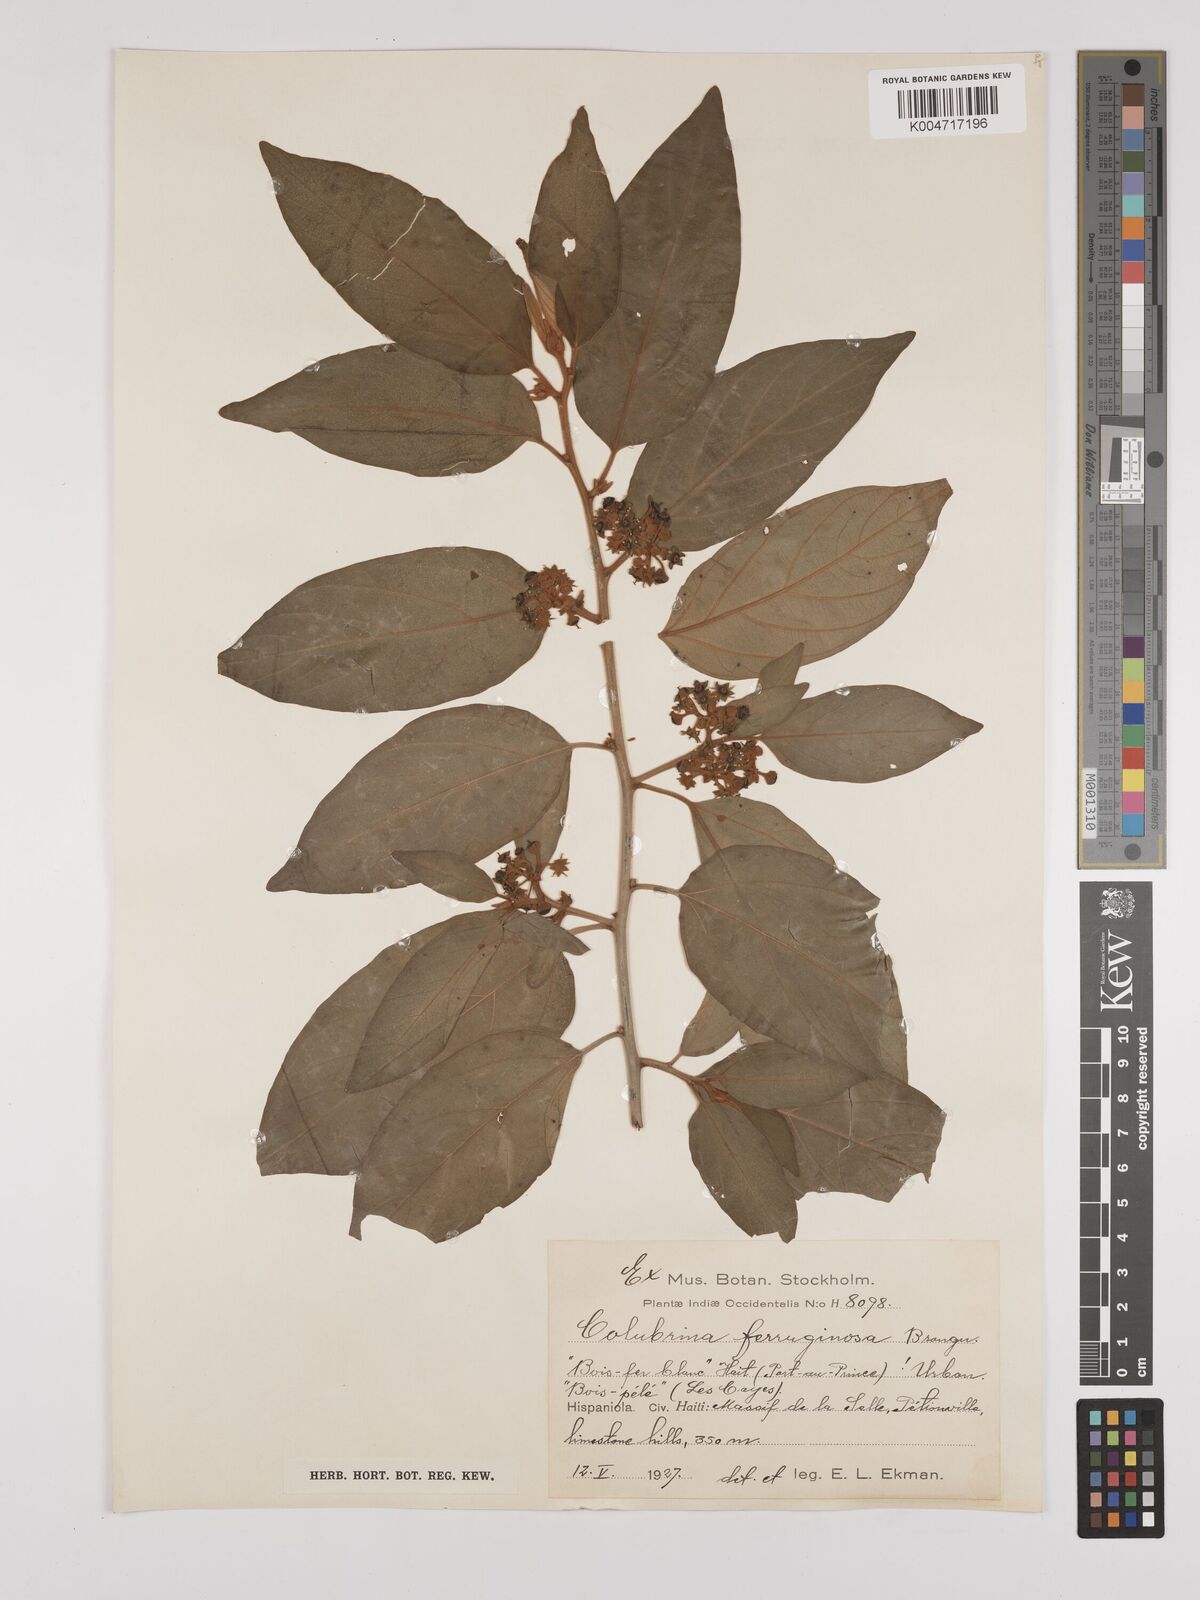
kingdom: Plantae
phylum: Tracheophyta
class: Magnoliopsida
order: Rosales
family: Rhamnaceae
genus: Colubrina
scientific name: Colubrina arborescens
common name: Wild coffee
